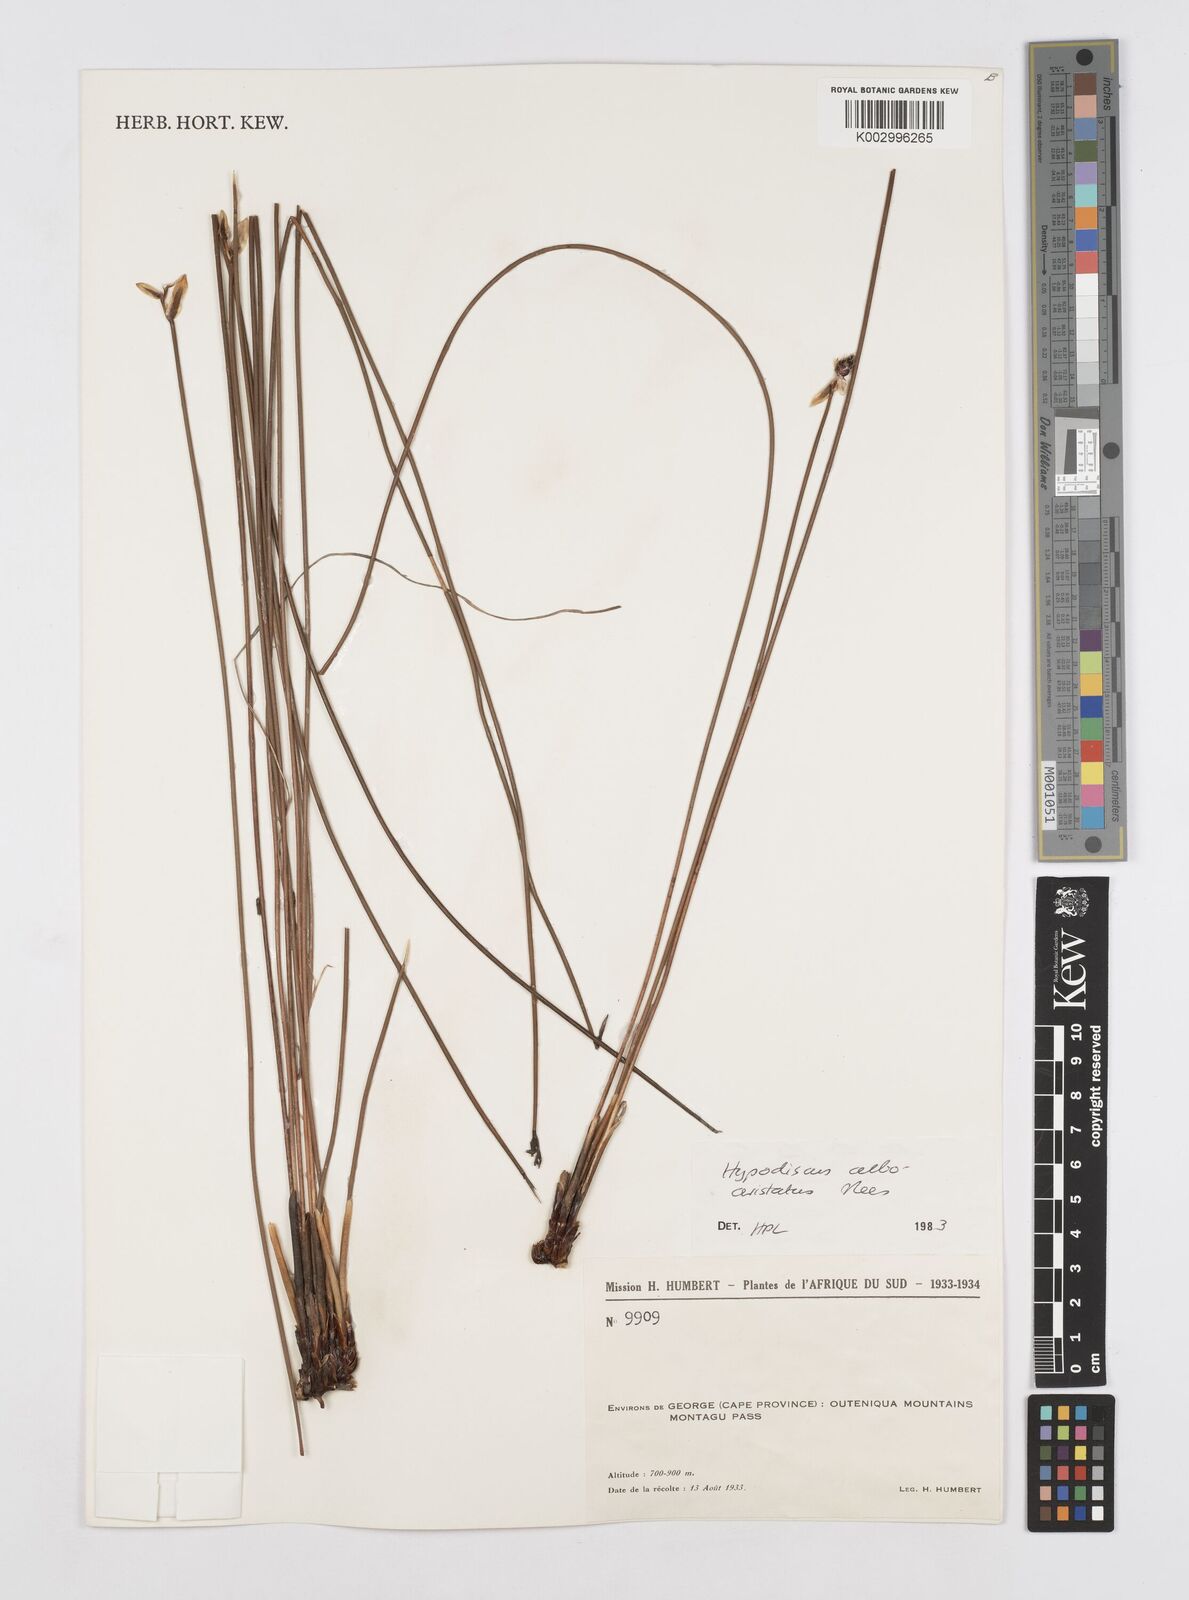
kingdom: Plantae
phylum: Tracheophyta
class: Liliopsida
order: Poales
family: Restionaceae
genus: Hypodiscus
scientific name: Hypodiscus alboaristatus
